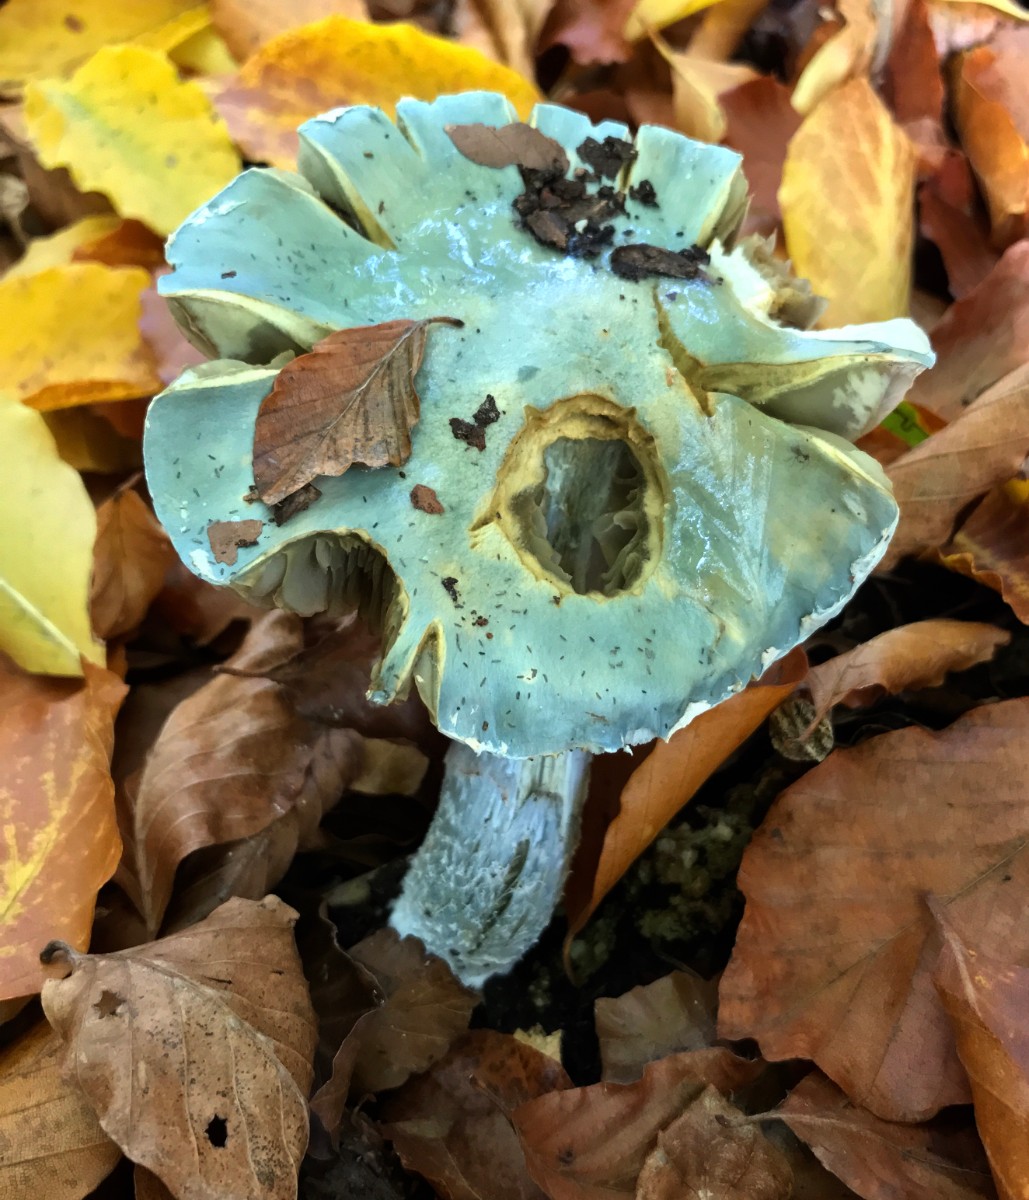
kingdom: Fungi
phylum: Basidiomycota
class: Agaricomycetes
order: Agaricales
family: Strophariaceae
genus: Stropharia
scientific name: Stropharia cyanea
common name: blågrøn bredblad
